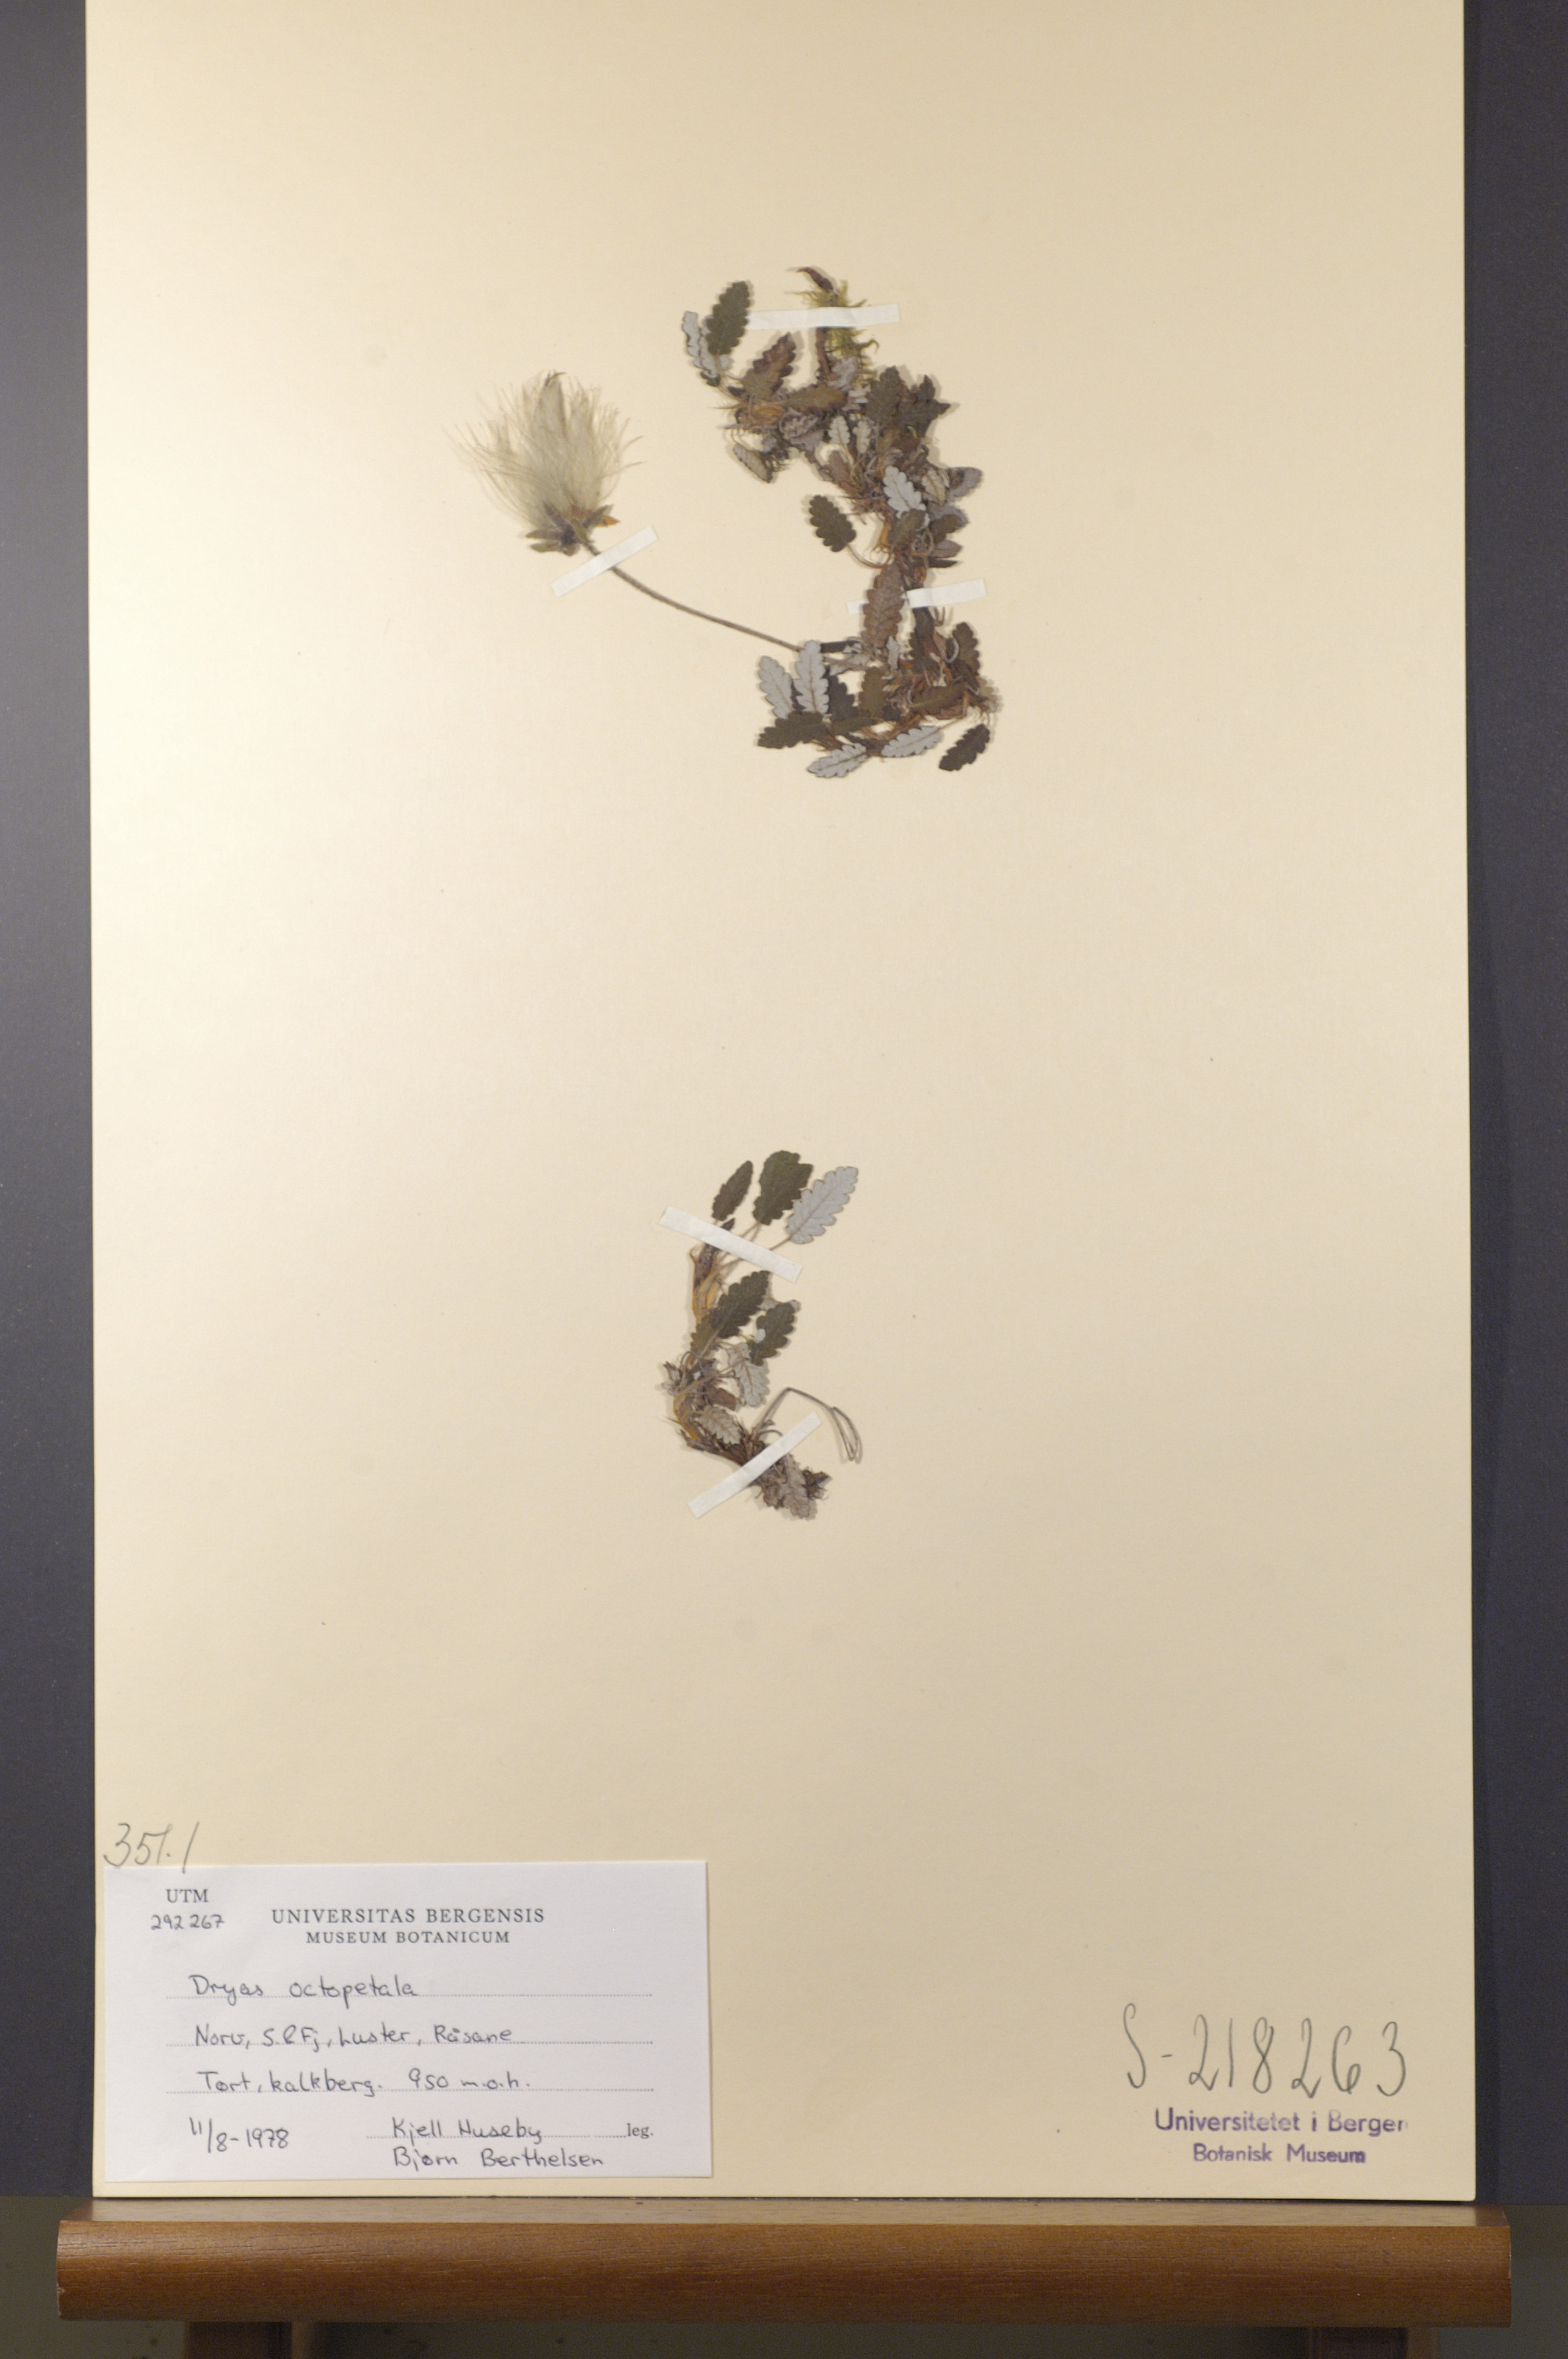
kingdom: Plantae
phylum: Tracheophyta
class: Magnoliopsida
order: Rosales
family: Rosaceae
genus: Dryas
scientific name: Dryas octopetala
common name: Eight-petal mountain-avens
